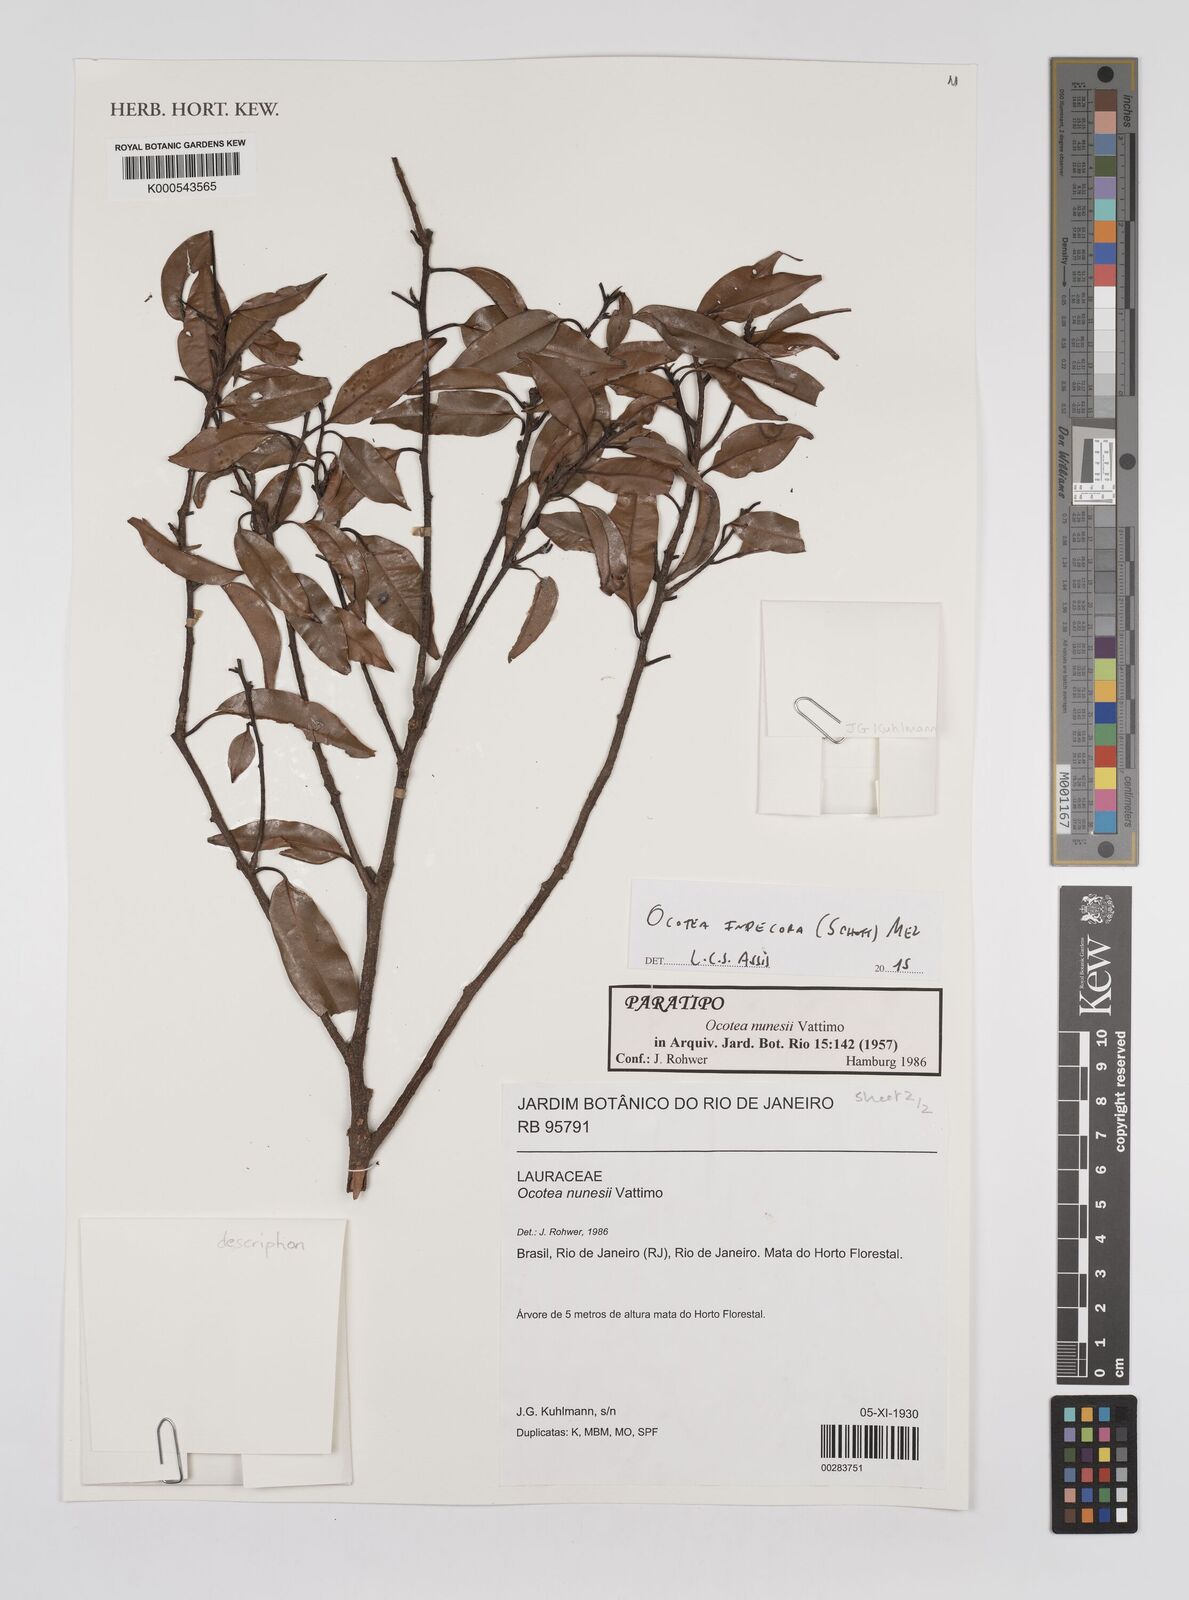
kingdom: Plantae
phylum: Tracheophyta
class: Magnoliopsida
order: Laurales
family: Lauraceae
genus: Mespilodaphne
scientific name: Mespilodaphne fasciculata
